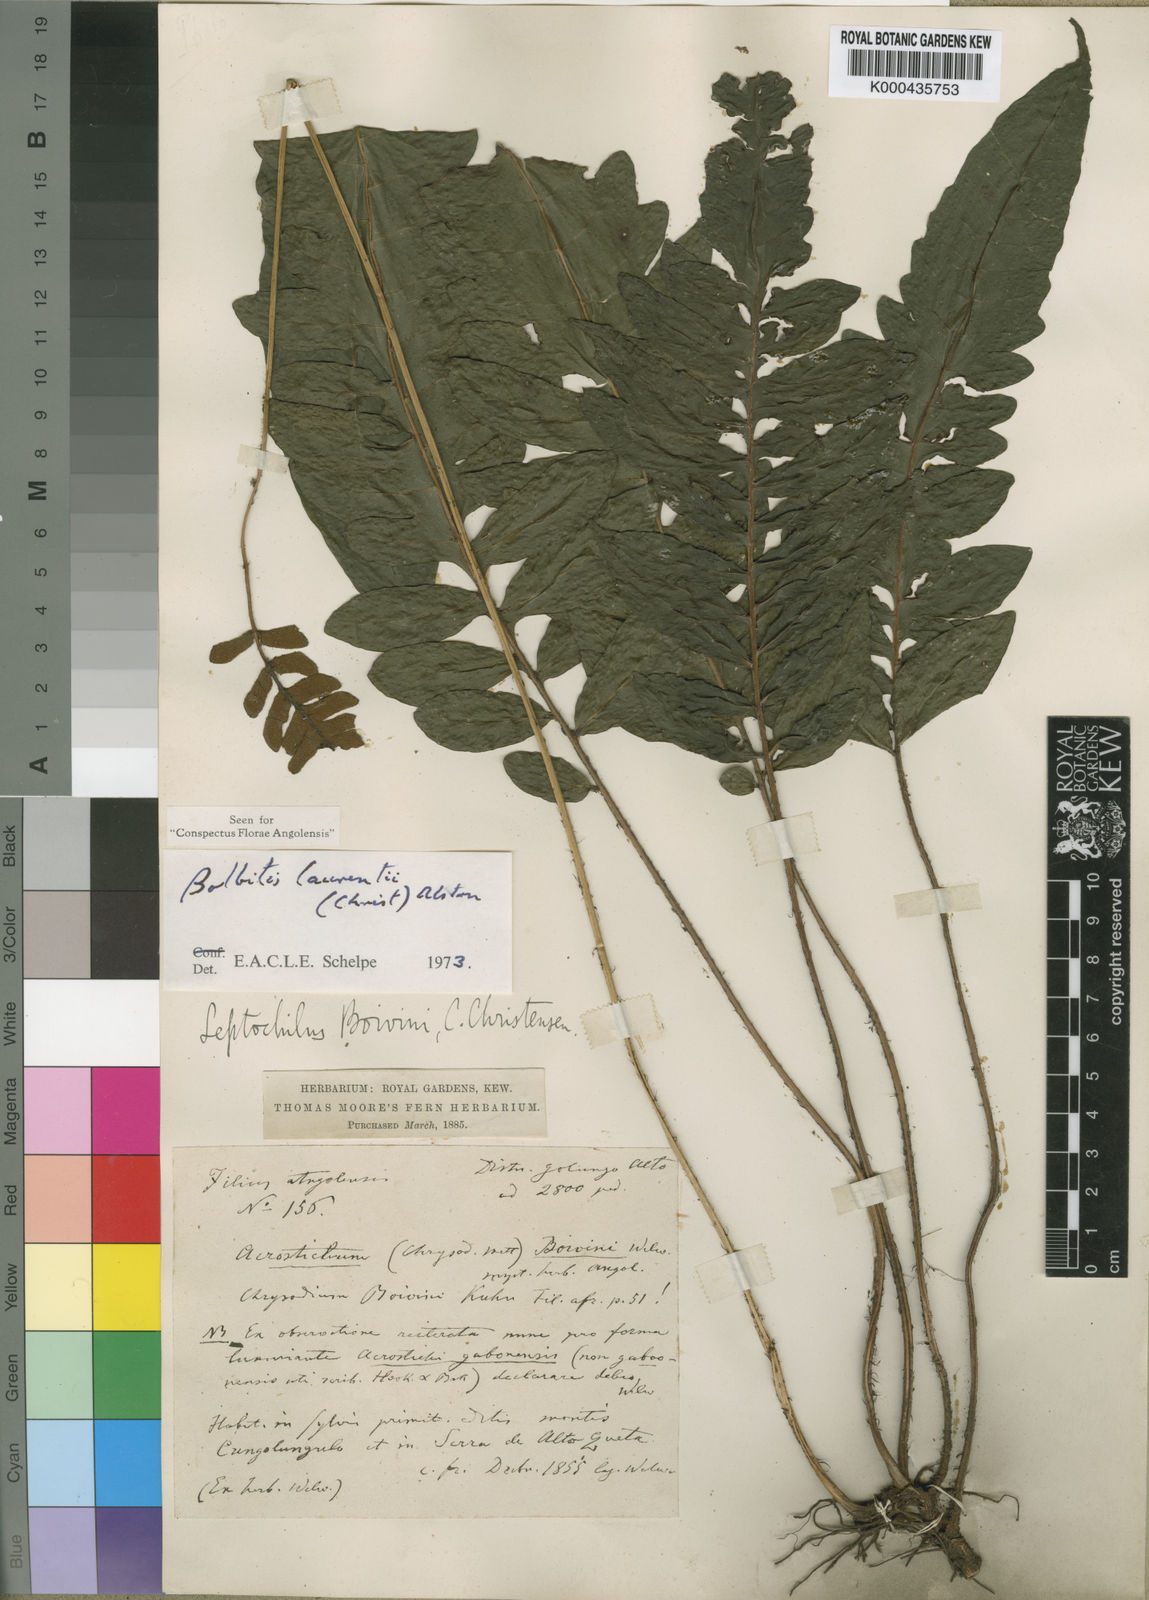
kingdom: Plantae
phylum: Tracheophyta
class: Polypodiopsida
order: Polypodiales
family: Dryopteridaceae
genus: Bolbitis
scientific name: Bolbitis boivinii
